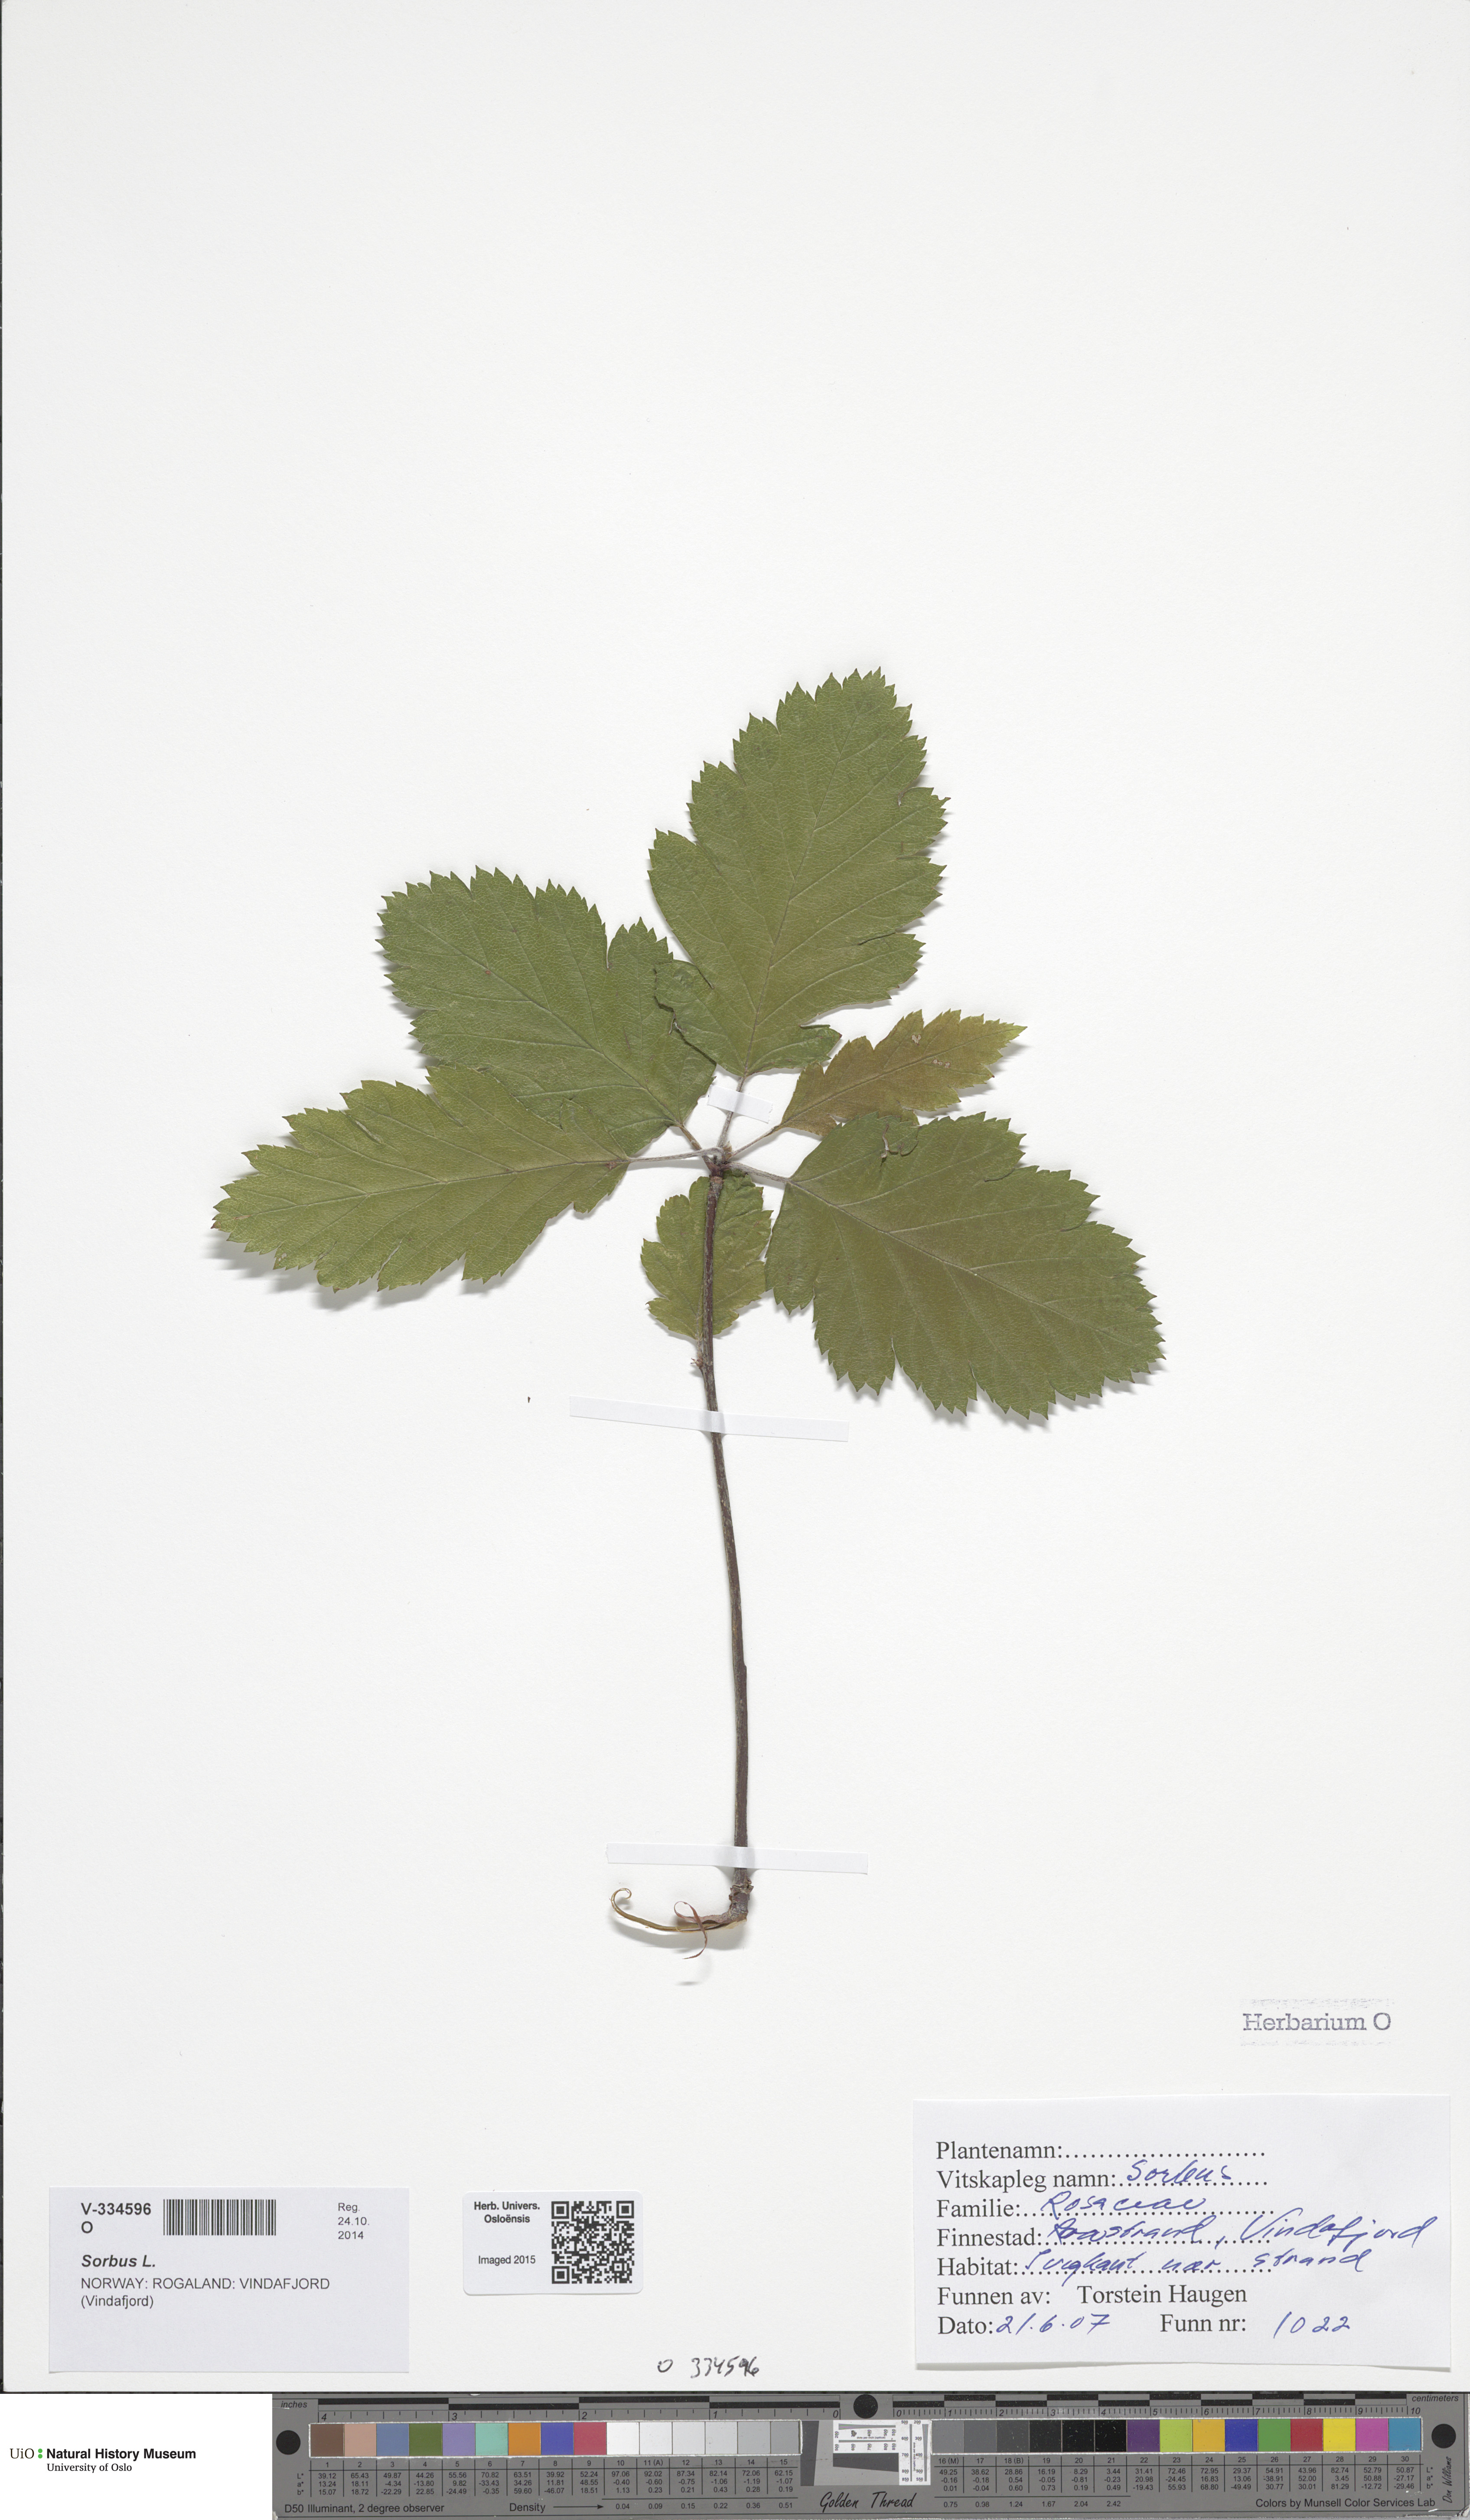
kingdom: Plantae
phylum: Tracheophyta
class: Magnoliopsida
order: Rosales
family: Rosaceae
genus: Scandosorbus
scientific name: Scandosorbus intermedia
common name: Swedish whitebeam
